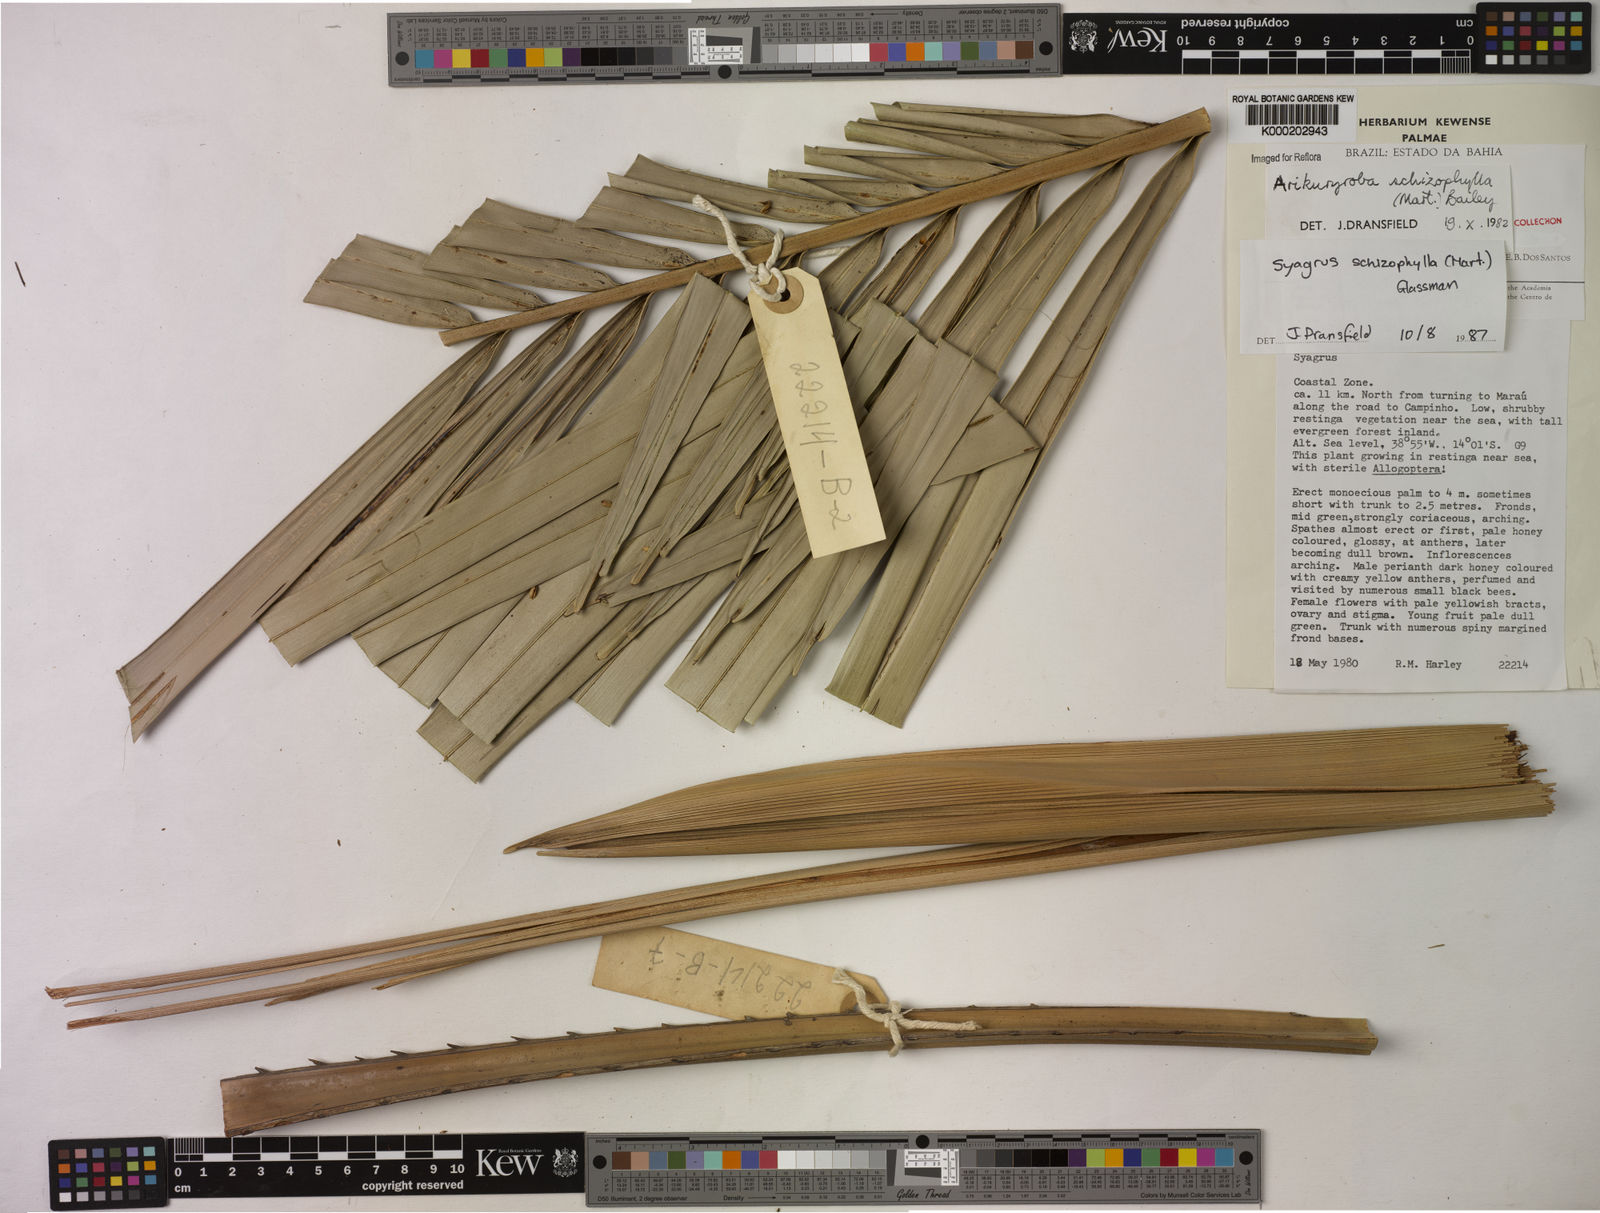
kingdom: Plantae
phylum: Tracheophyta
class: Liliopsida
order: Arecales
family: Arecaceae
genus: Syagrus
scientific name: Syagrus schizophylla
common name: Arikury palm
